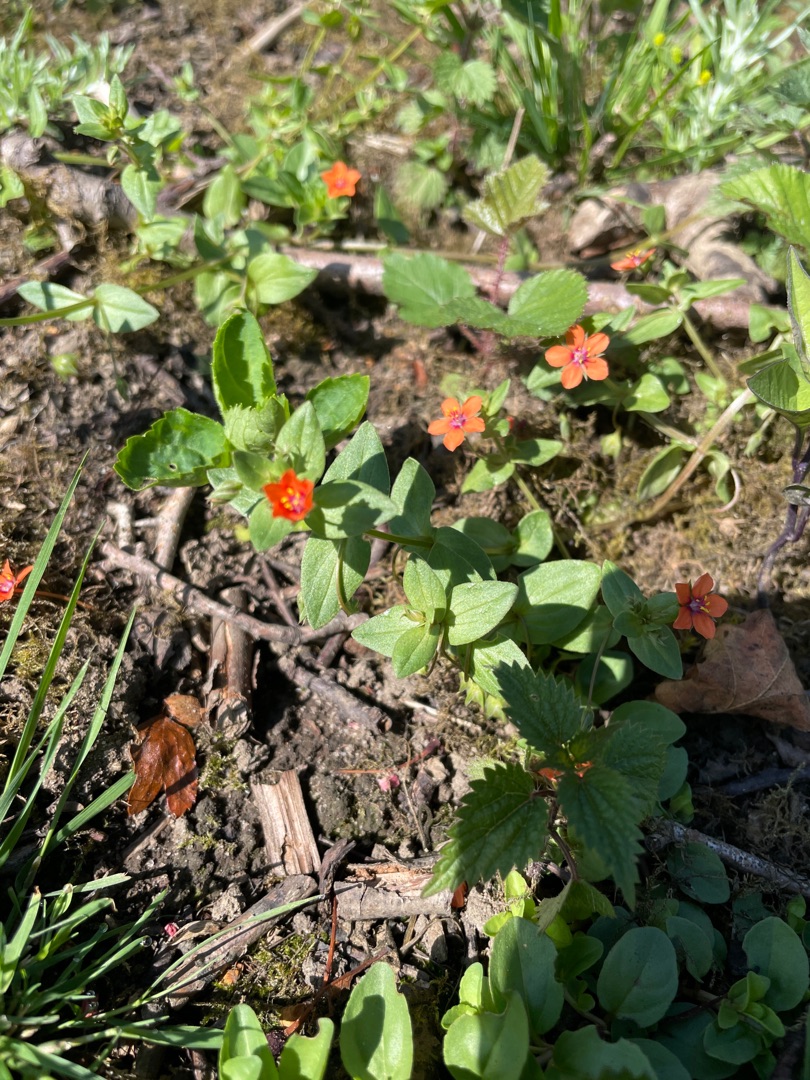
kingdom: Plantae
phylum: Tracheophyta
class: Magnoliopsida
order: Ericales
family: Primulaceae
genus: Lysimachia
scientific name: Lysimachia arvensis
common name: Rød arve
